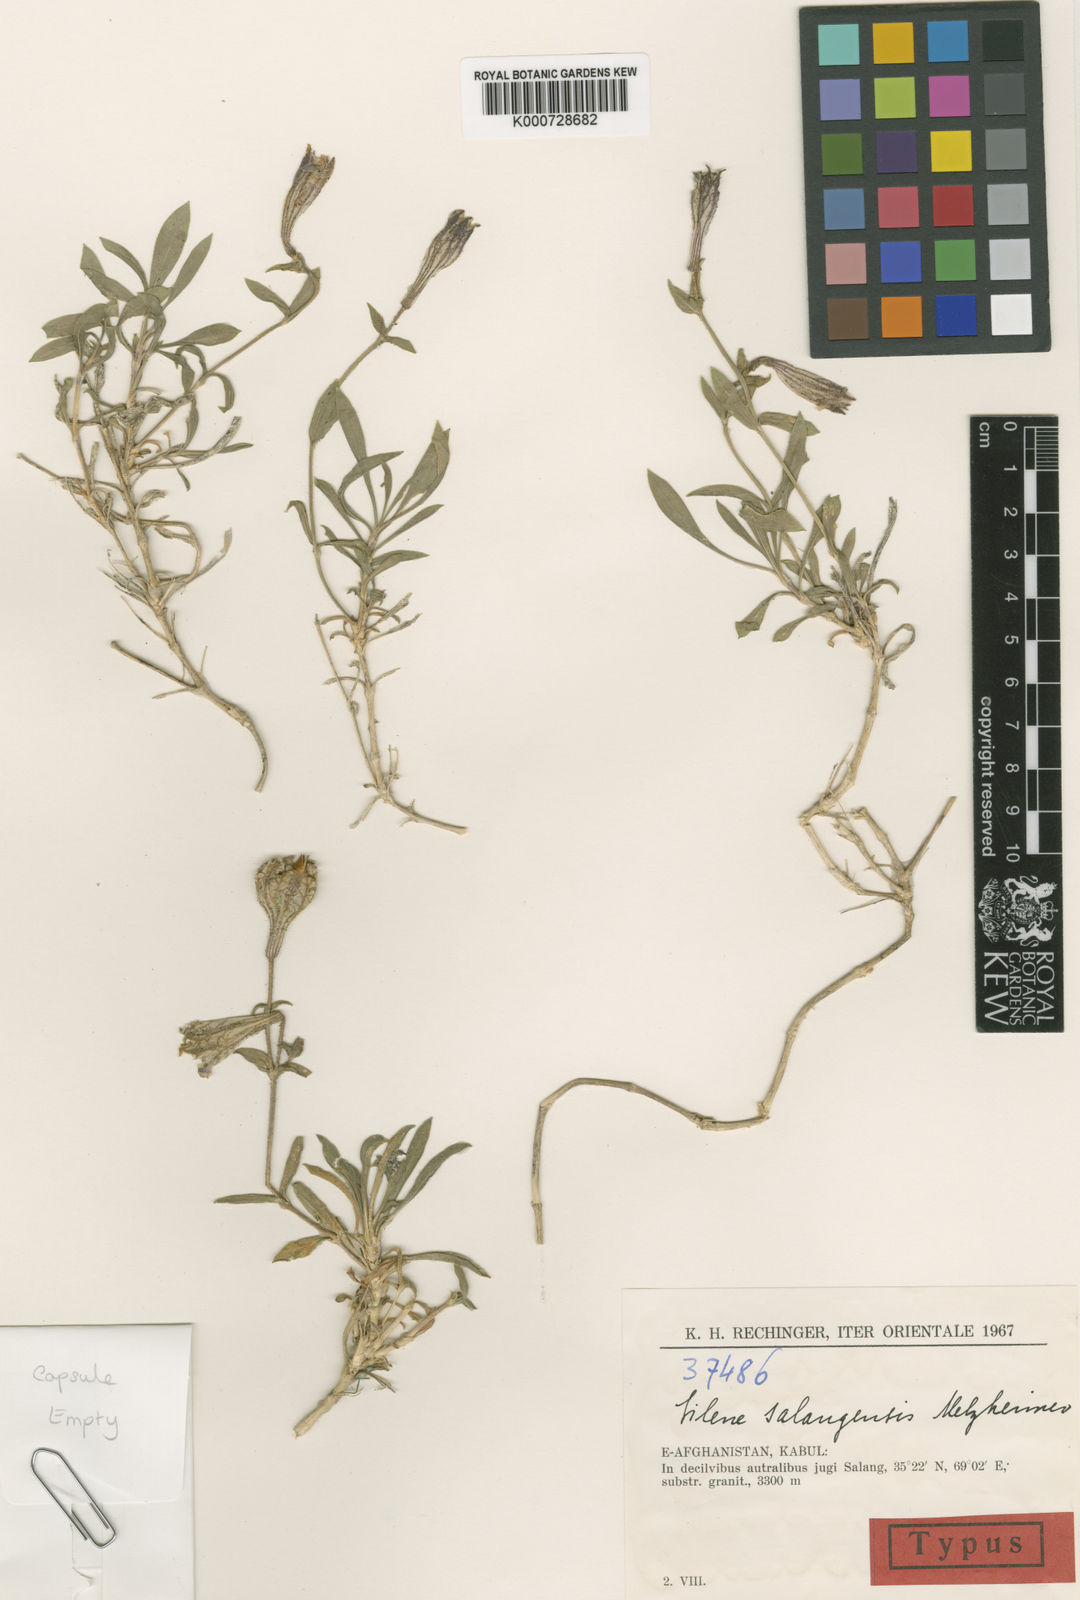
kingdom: Plantae
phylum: Tracheophyta
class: Magnoliopsida
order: Caryophyllales
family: Caryophyllaceae
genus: Silene
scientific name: Silene salangensis
